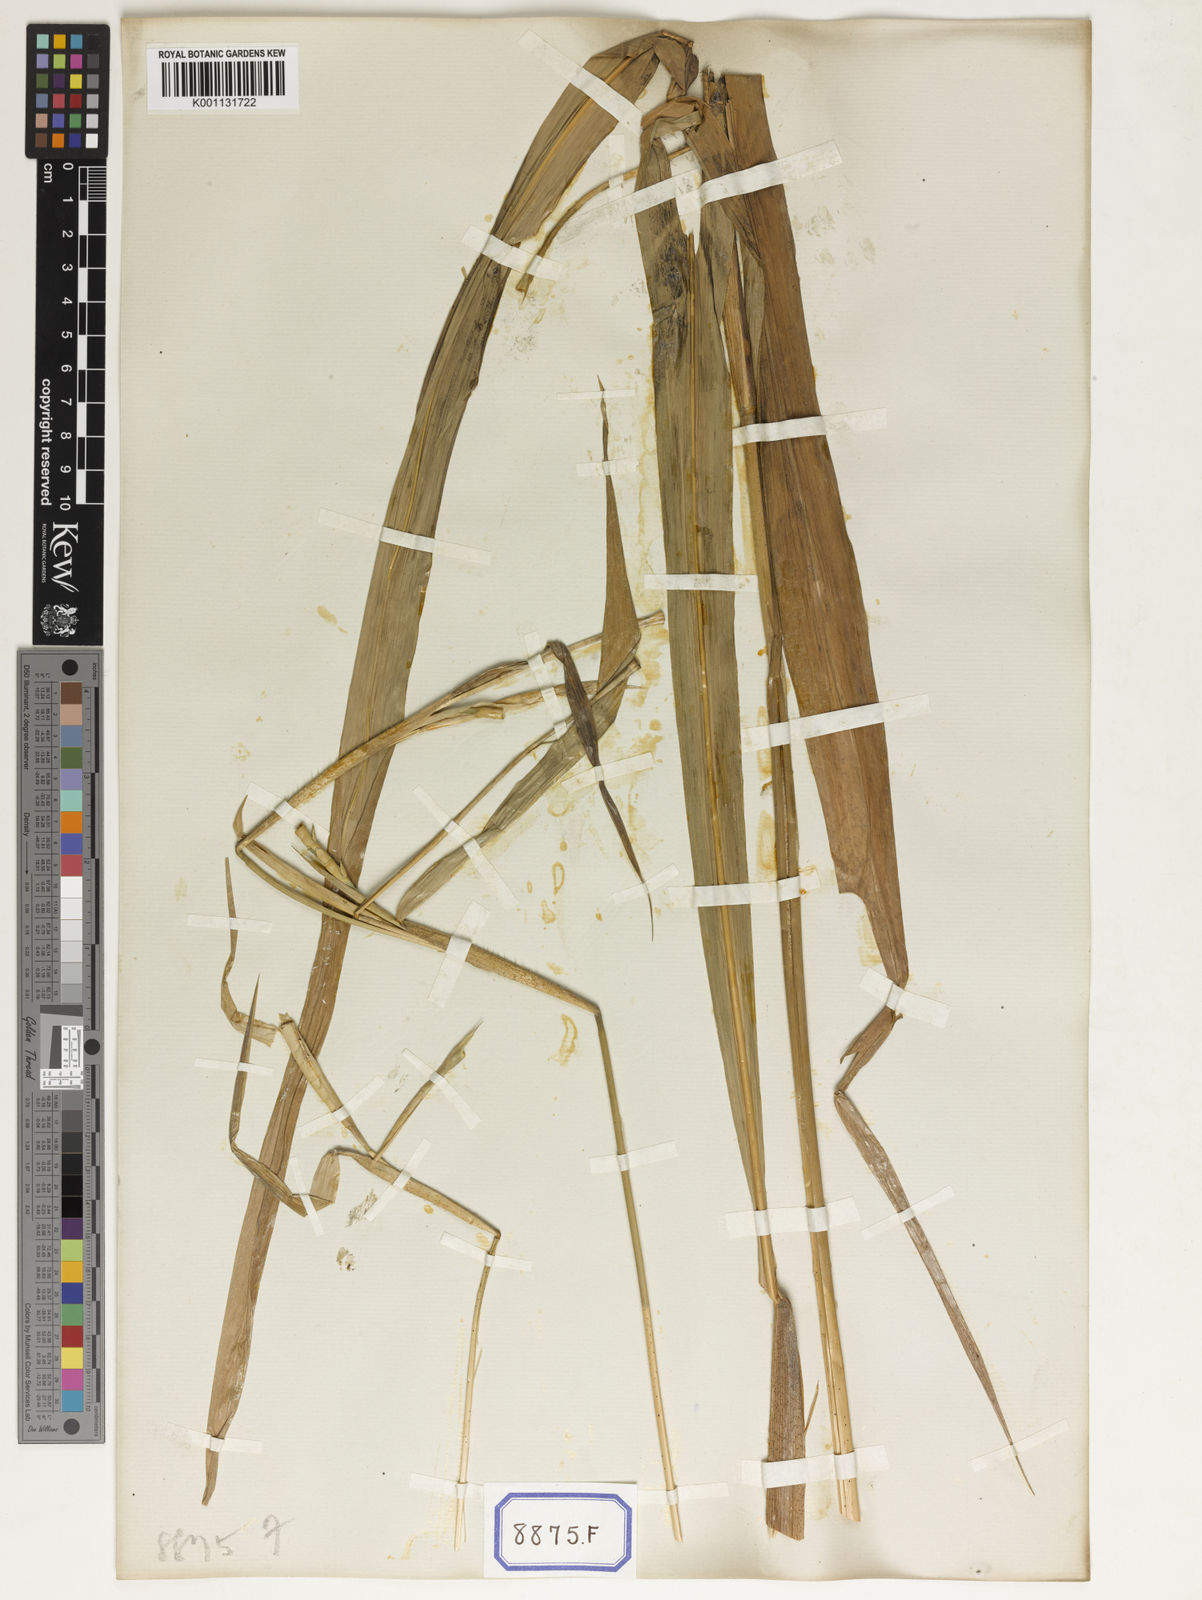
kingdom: Plantae
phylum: Tracheophyta
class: Liliopsida
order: Poales
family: Poaceae
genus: Ophiuros
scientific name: Ophiuros exaltatus
